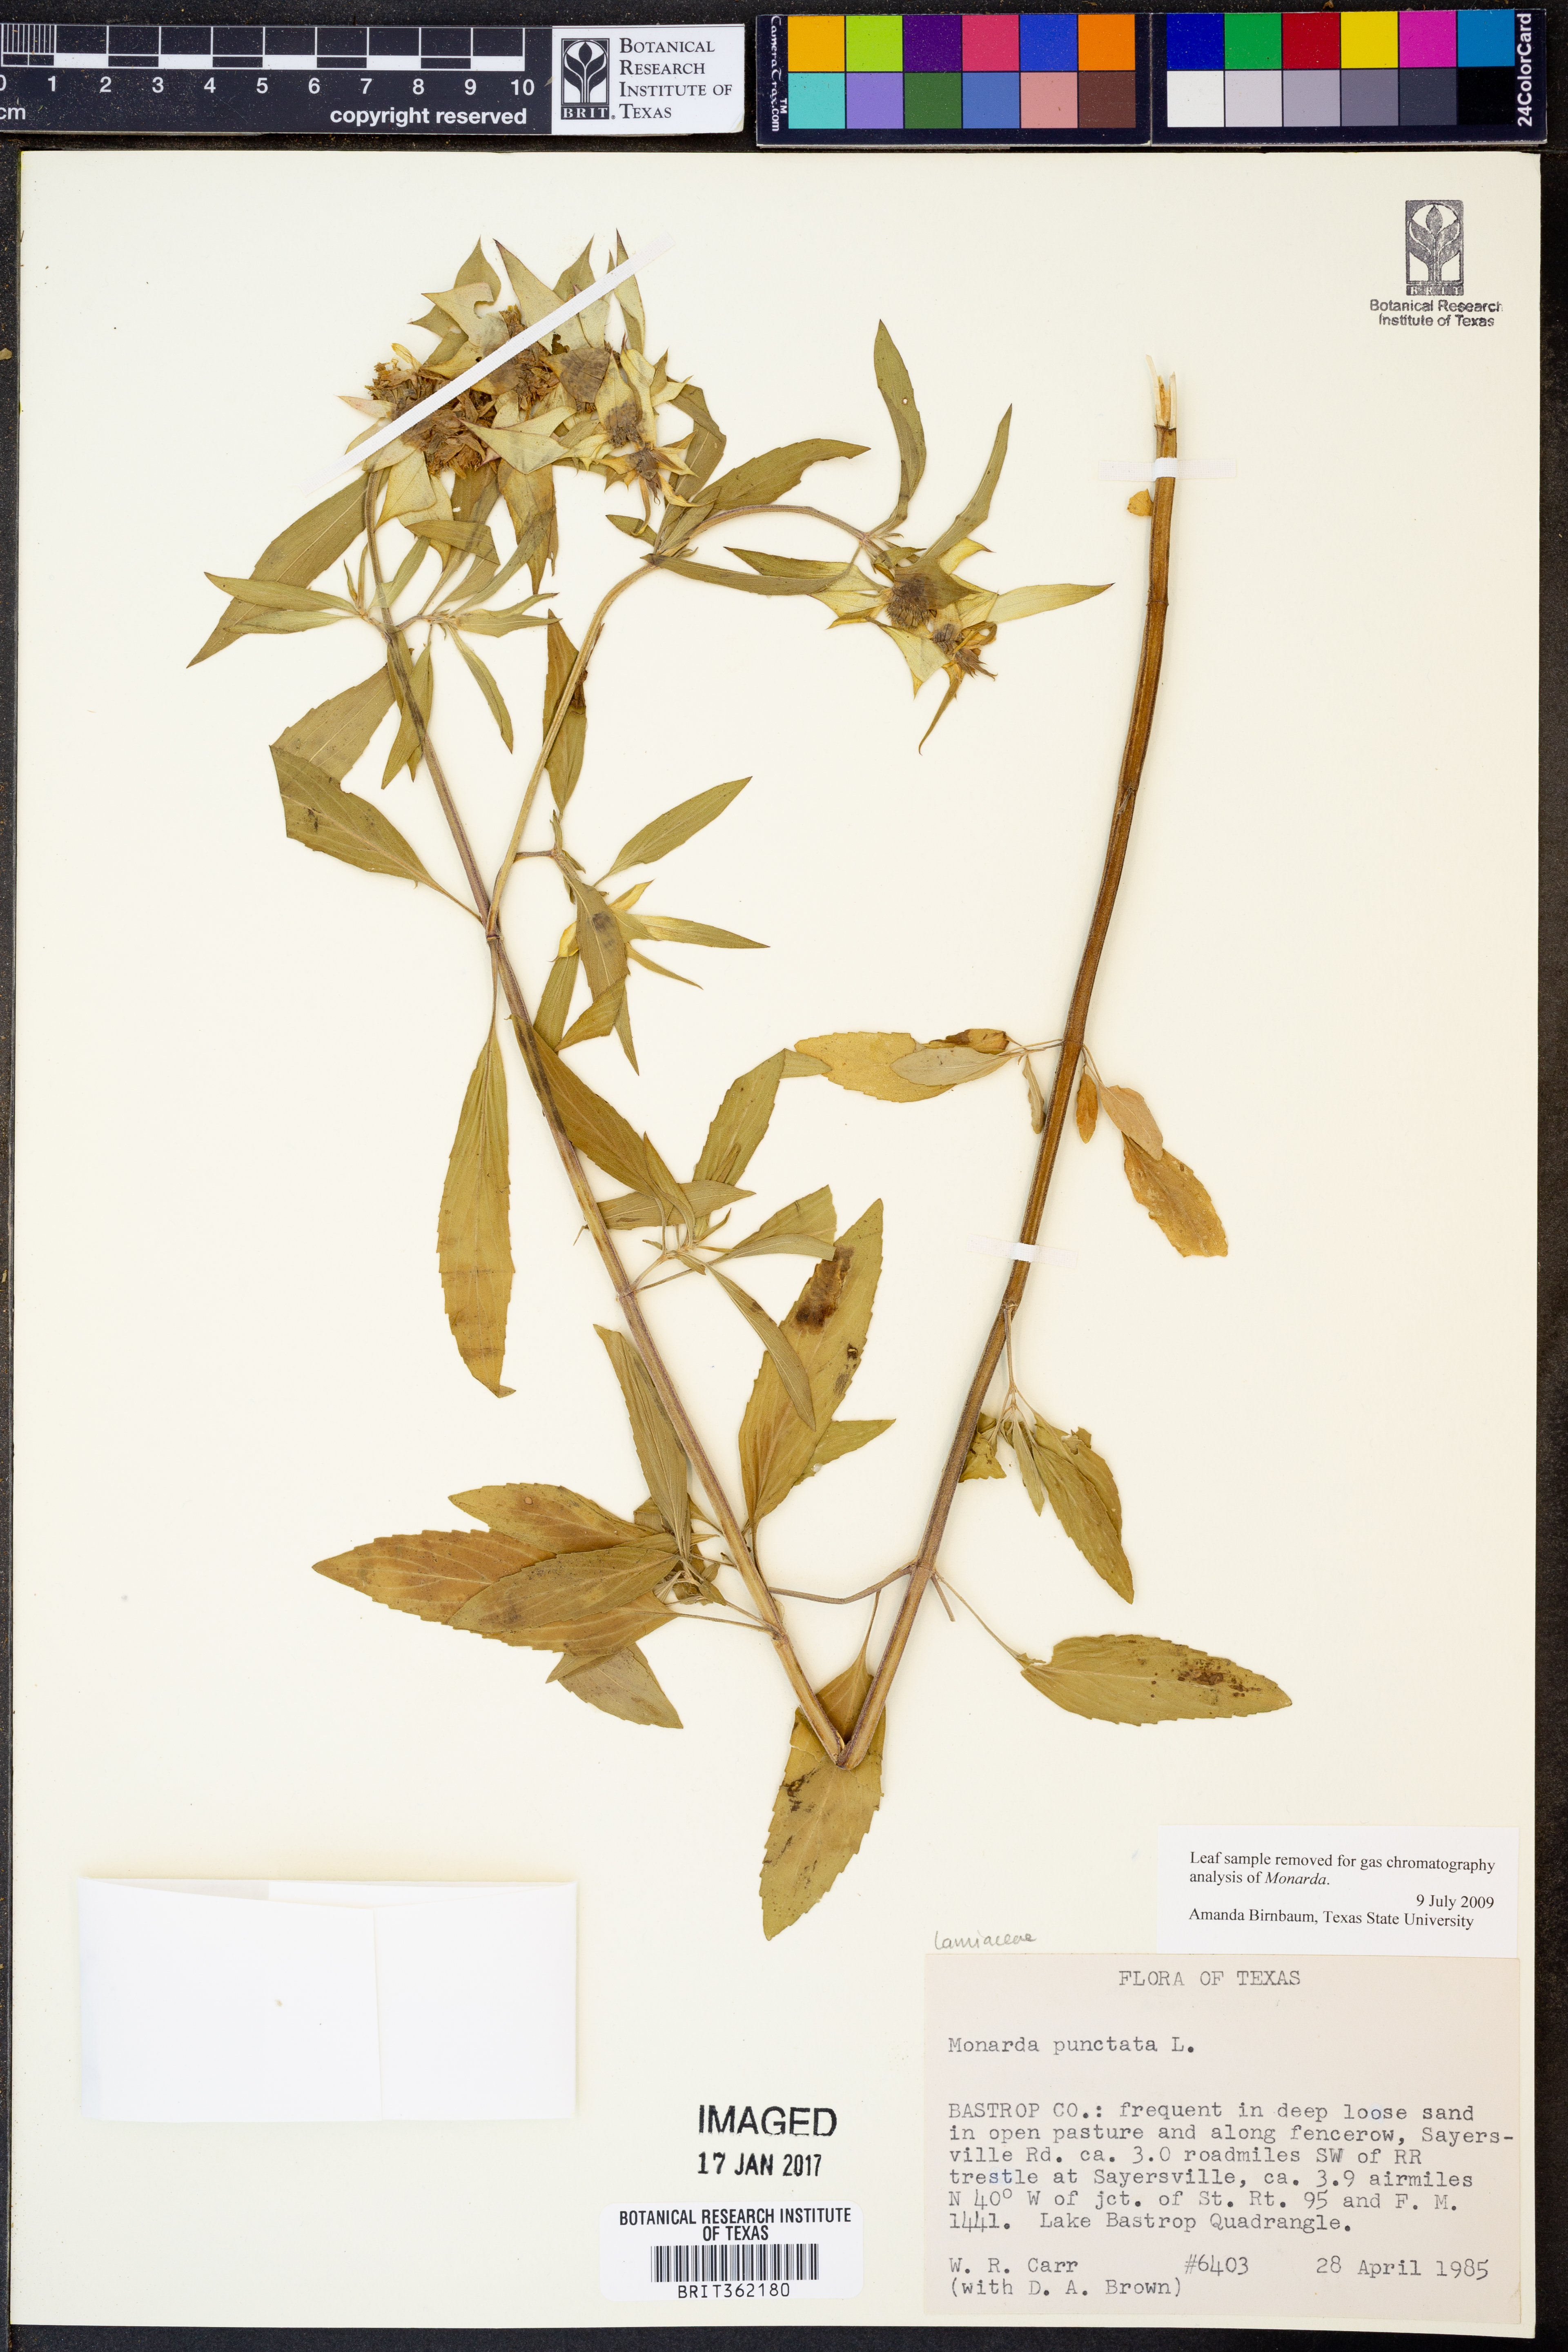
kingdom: Plantae
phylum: Tracheophyta
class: Magnoliopsida
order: Lamiales
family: Lamiaceae
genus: Monarda
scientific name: Monarda punctata
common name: Dotted monarda
